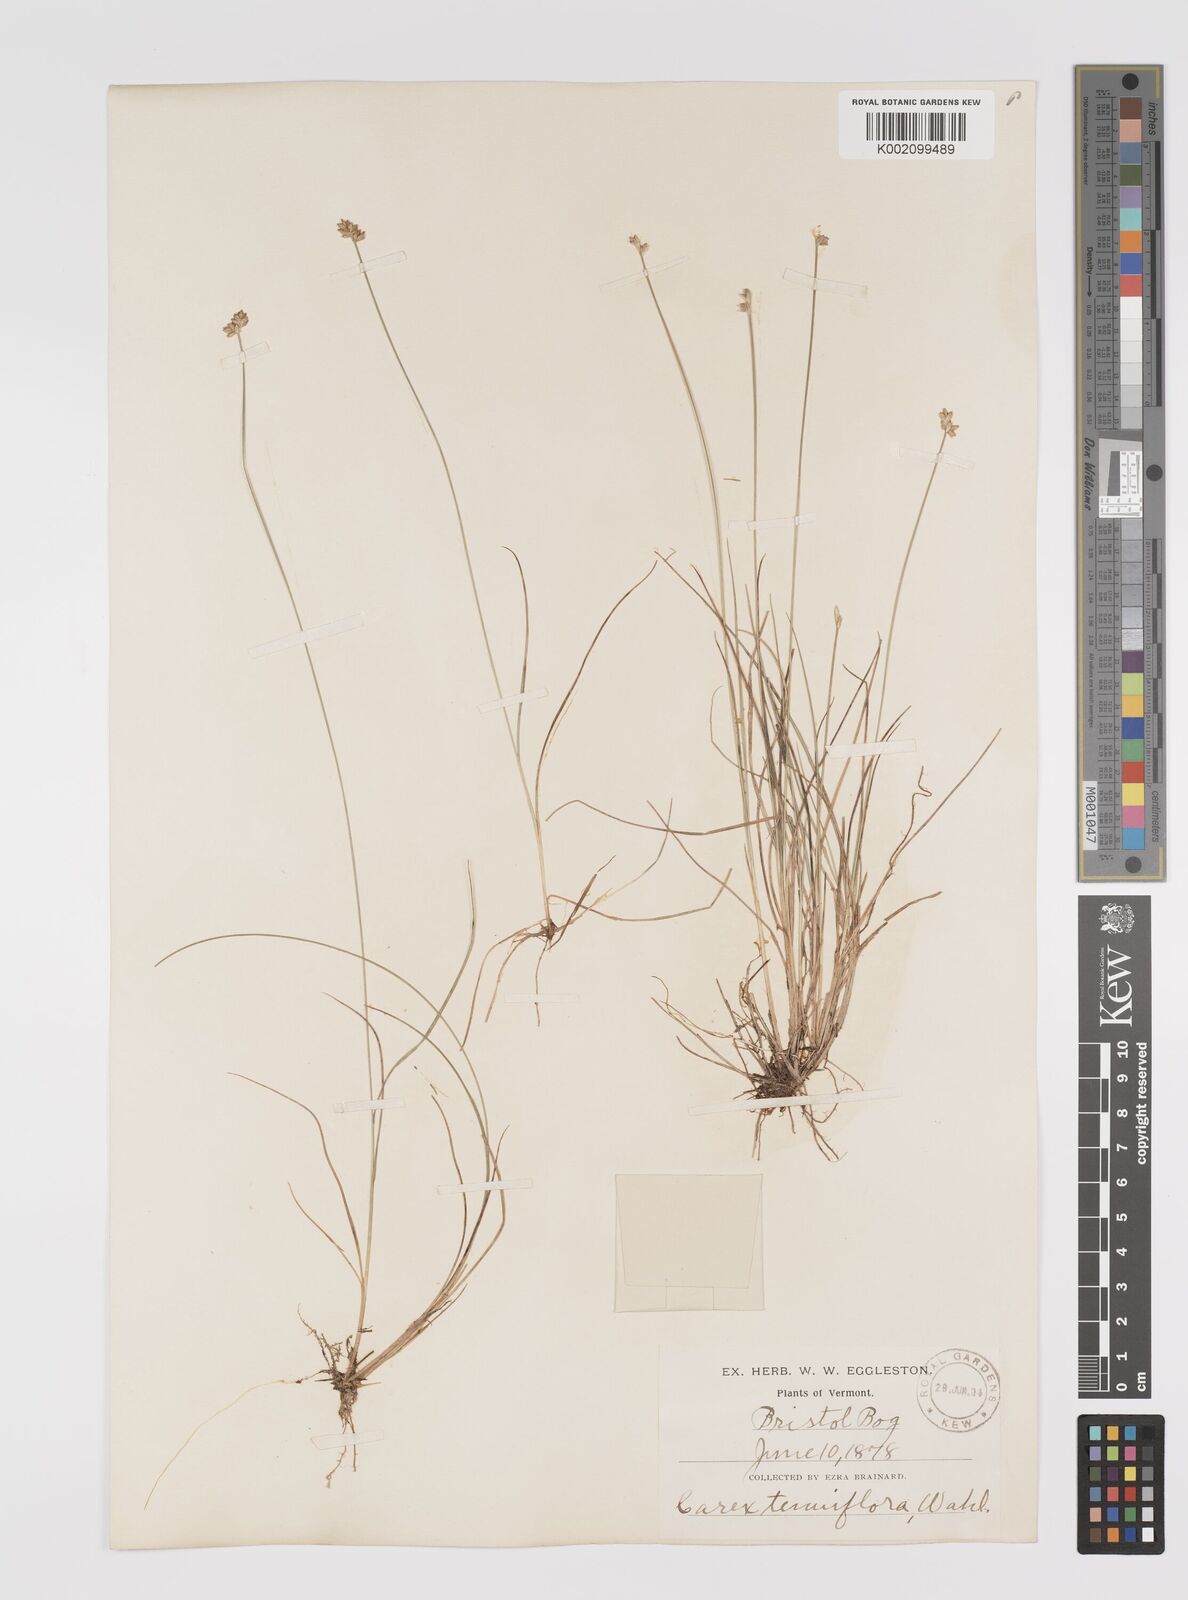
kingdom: Plantae
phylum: Tracheophyta
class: Liliopsida
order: Poales
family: Cyperaceae
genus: Carex
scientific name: Carex tenuiflora
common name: Sparse-flowered sedge
